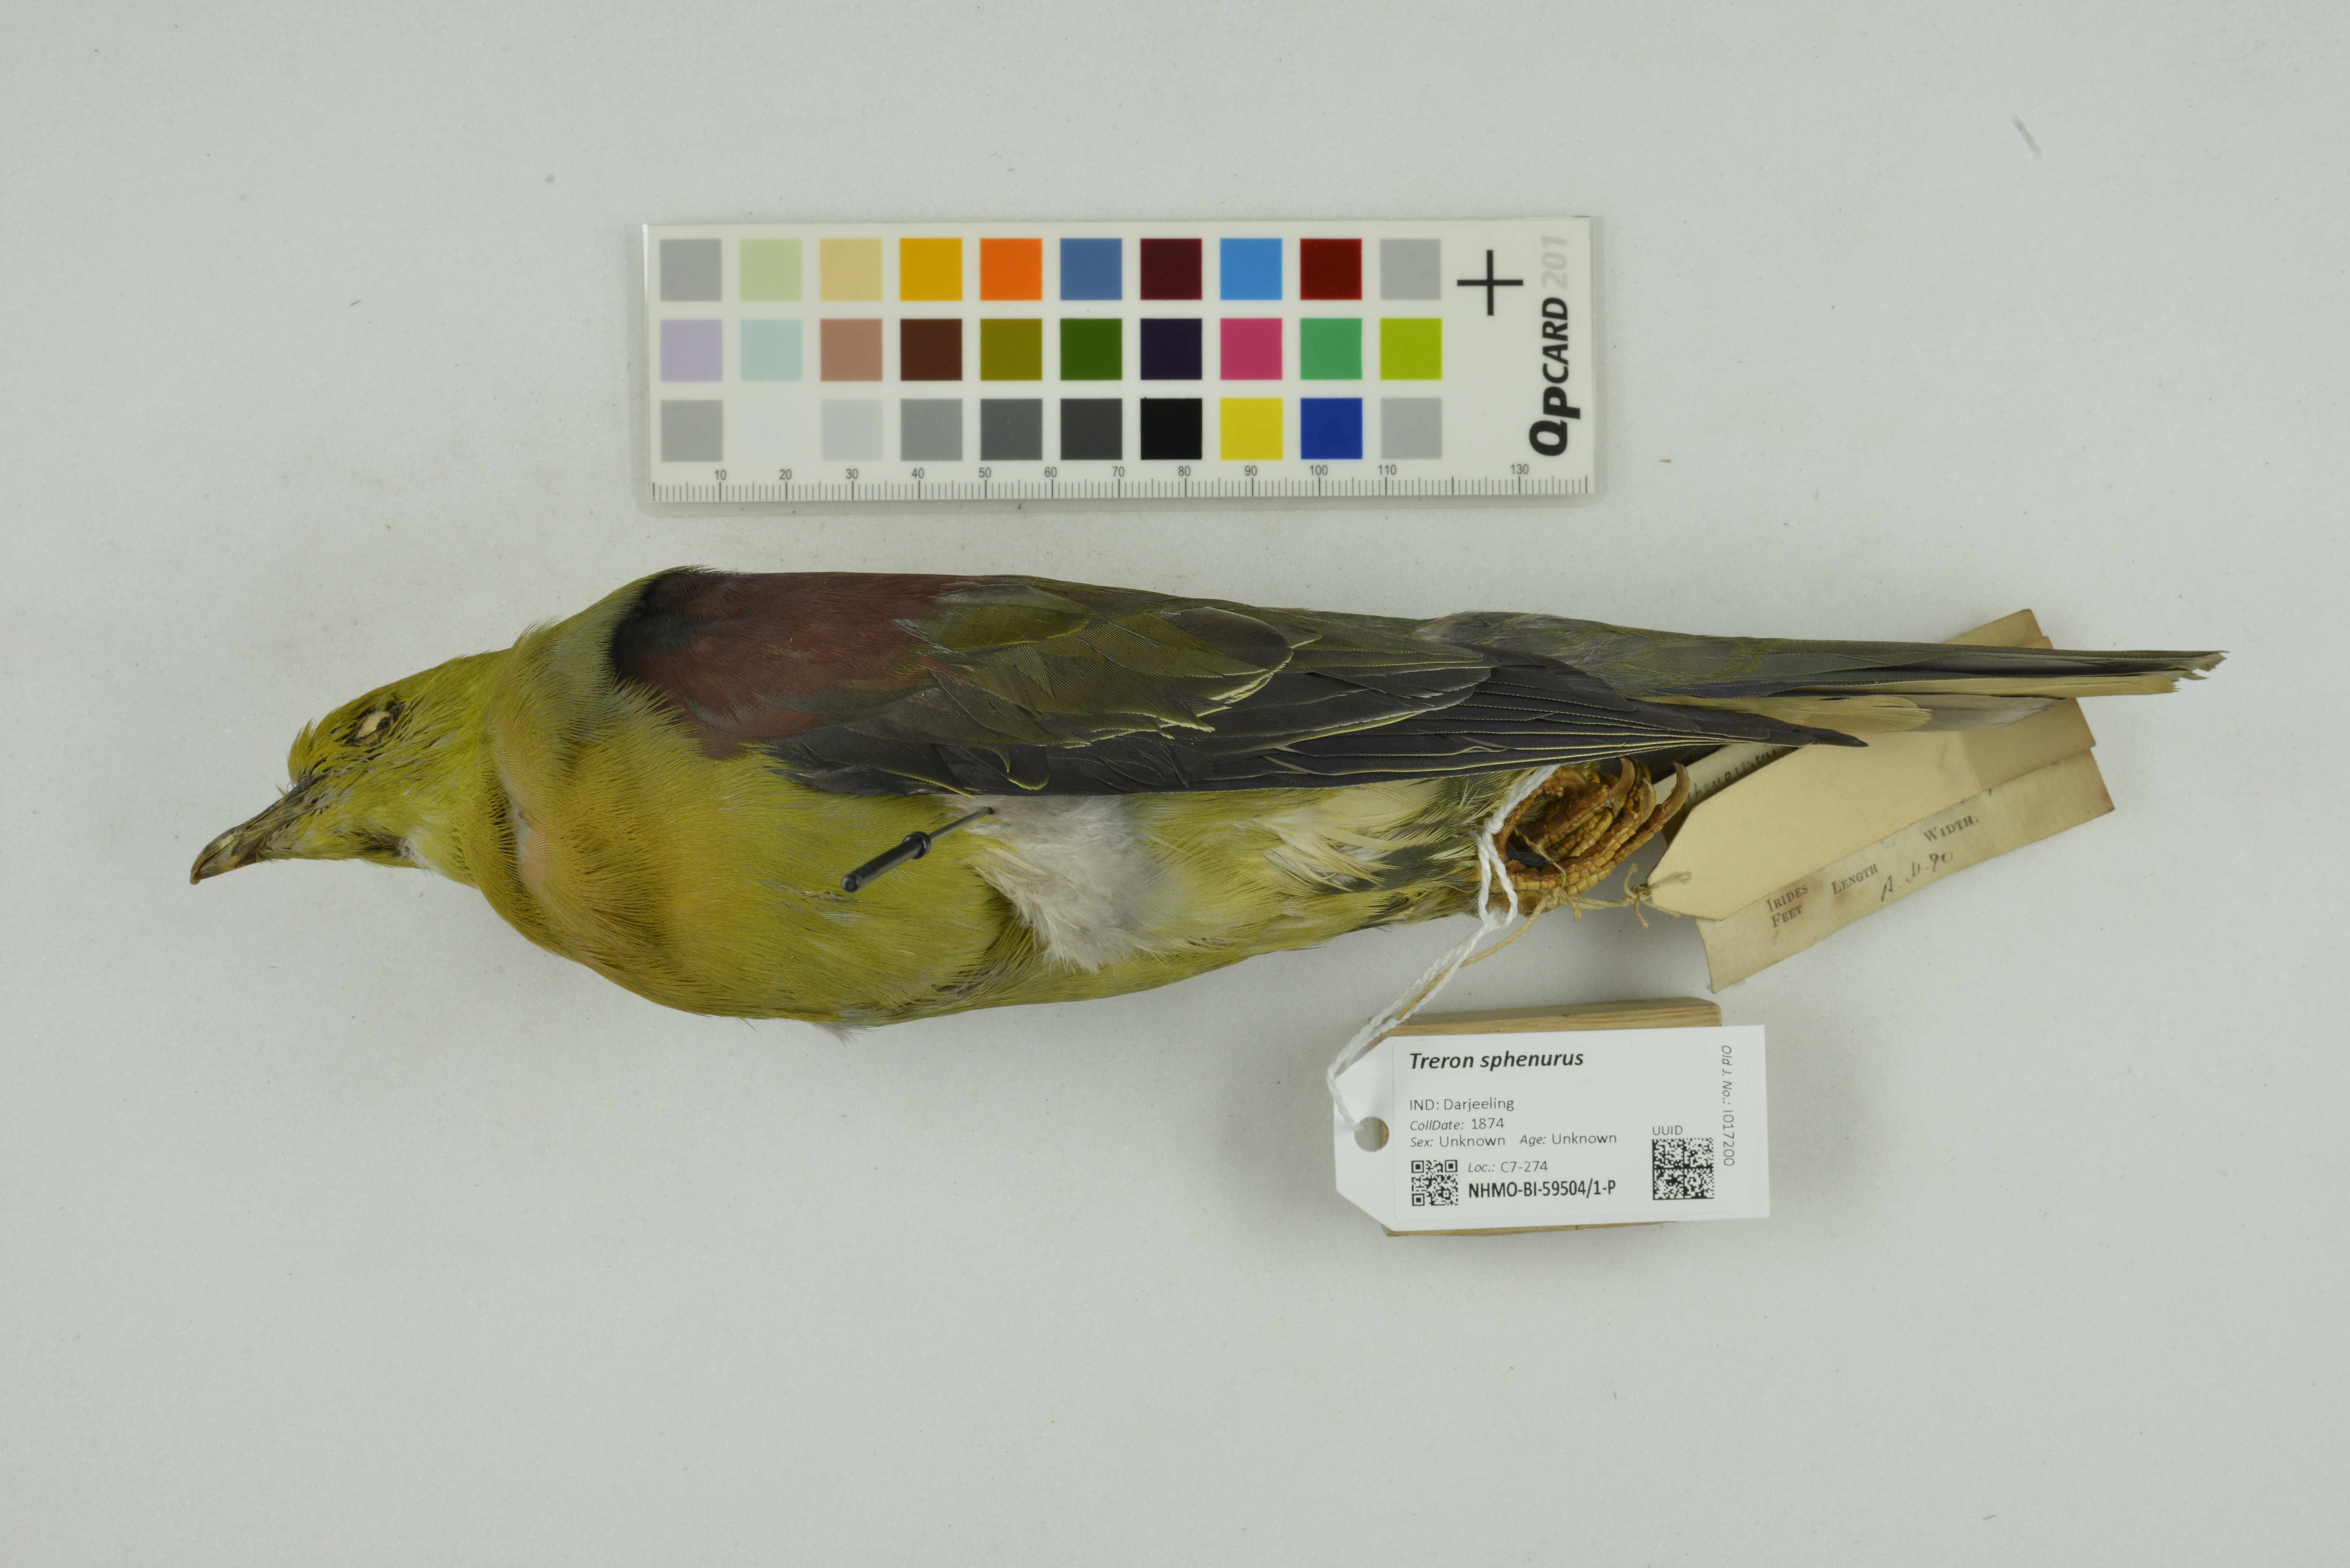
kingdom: Animalia
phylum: Chordata
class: Aves
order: Columbiformes
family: Columbidae
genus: Treron
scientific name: Treron sphenurus
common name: Wedge-tailed green pigeon
